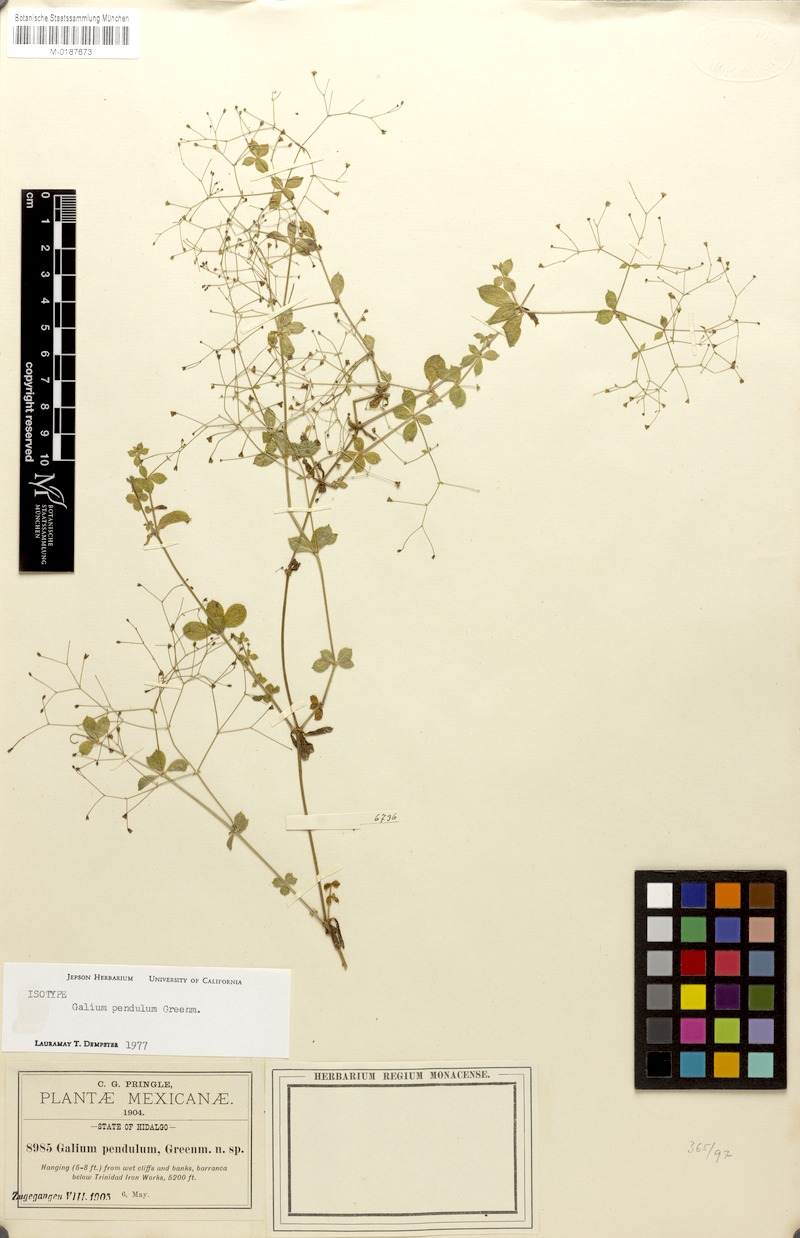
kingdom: Plantae
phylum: Tracheophyta
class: Magnoliopsida
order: Gentianales
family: Rubiaceae
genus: Galium
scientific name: Galium pendulum
